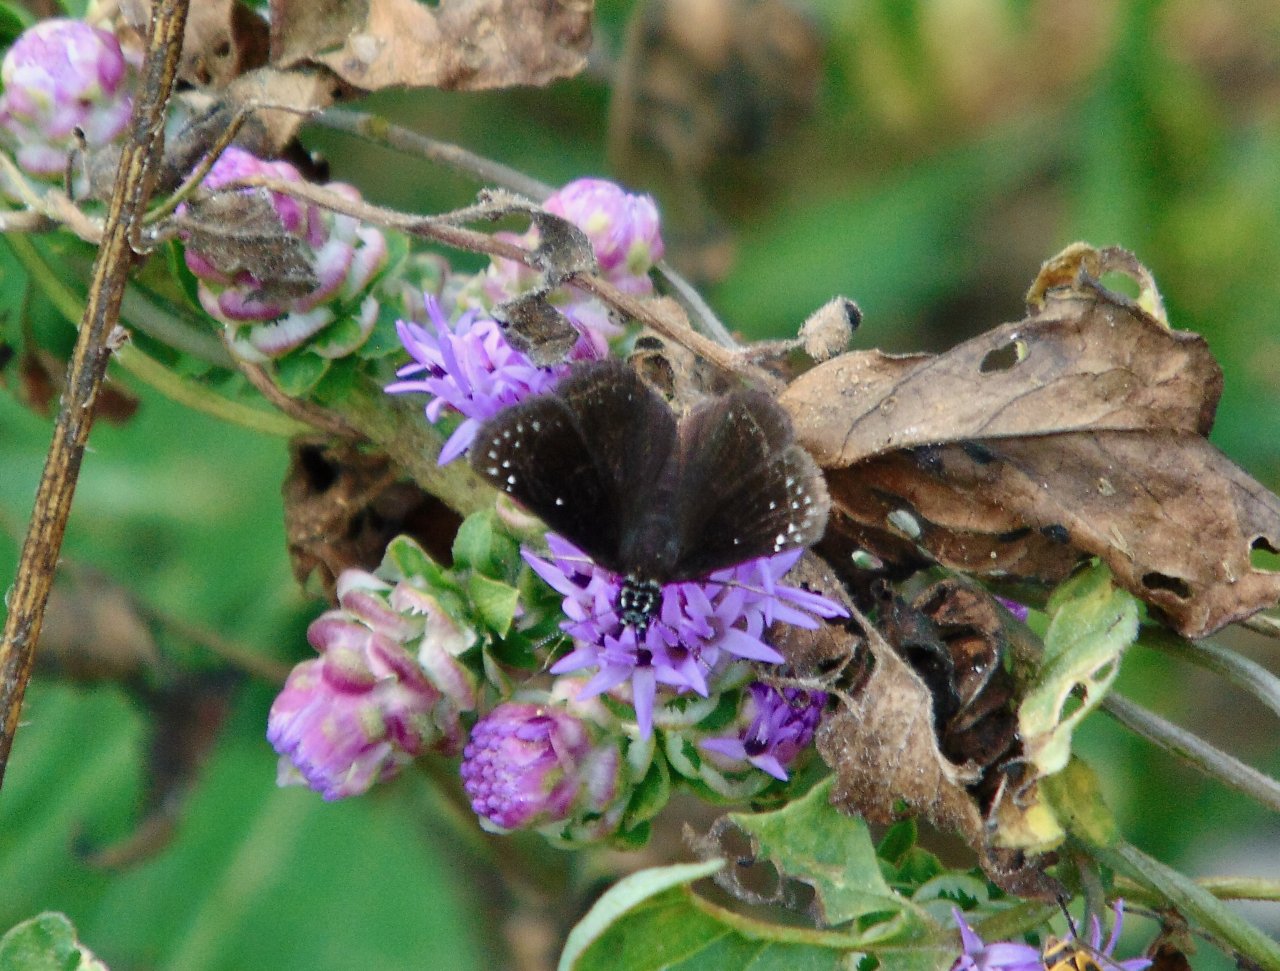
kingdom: Animalia
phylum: Arthropoda
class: Insecta
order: Lepidoptera
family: Hesperiidae
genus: Pholisora
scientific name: Pholisora catullus
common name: Common Sootywing
